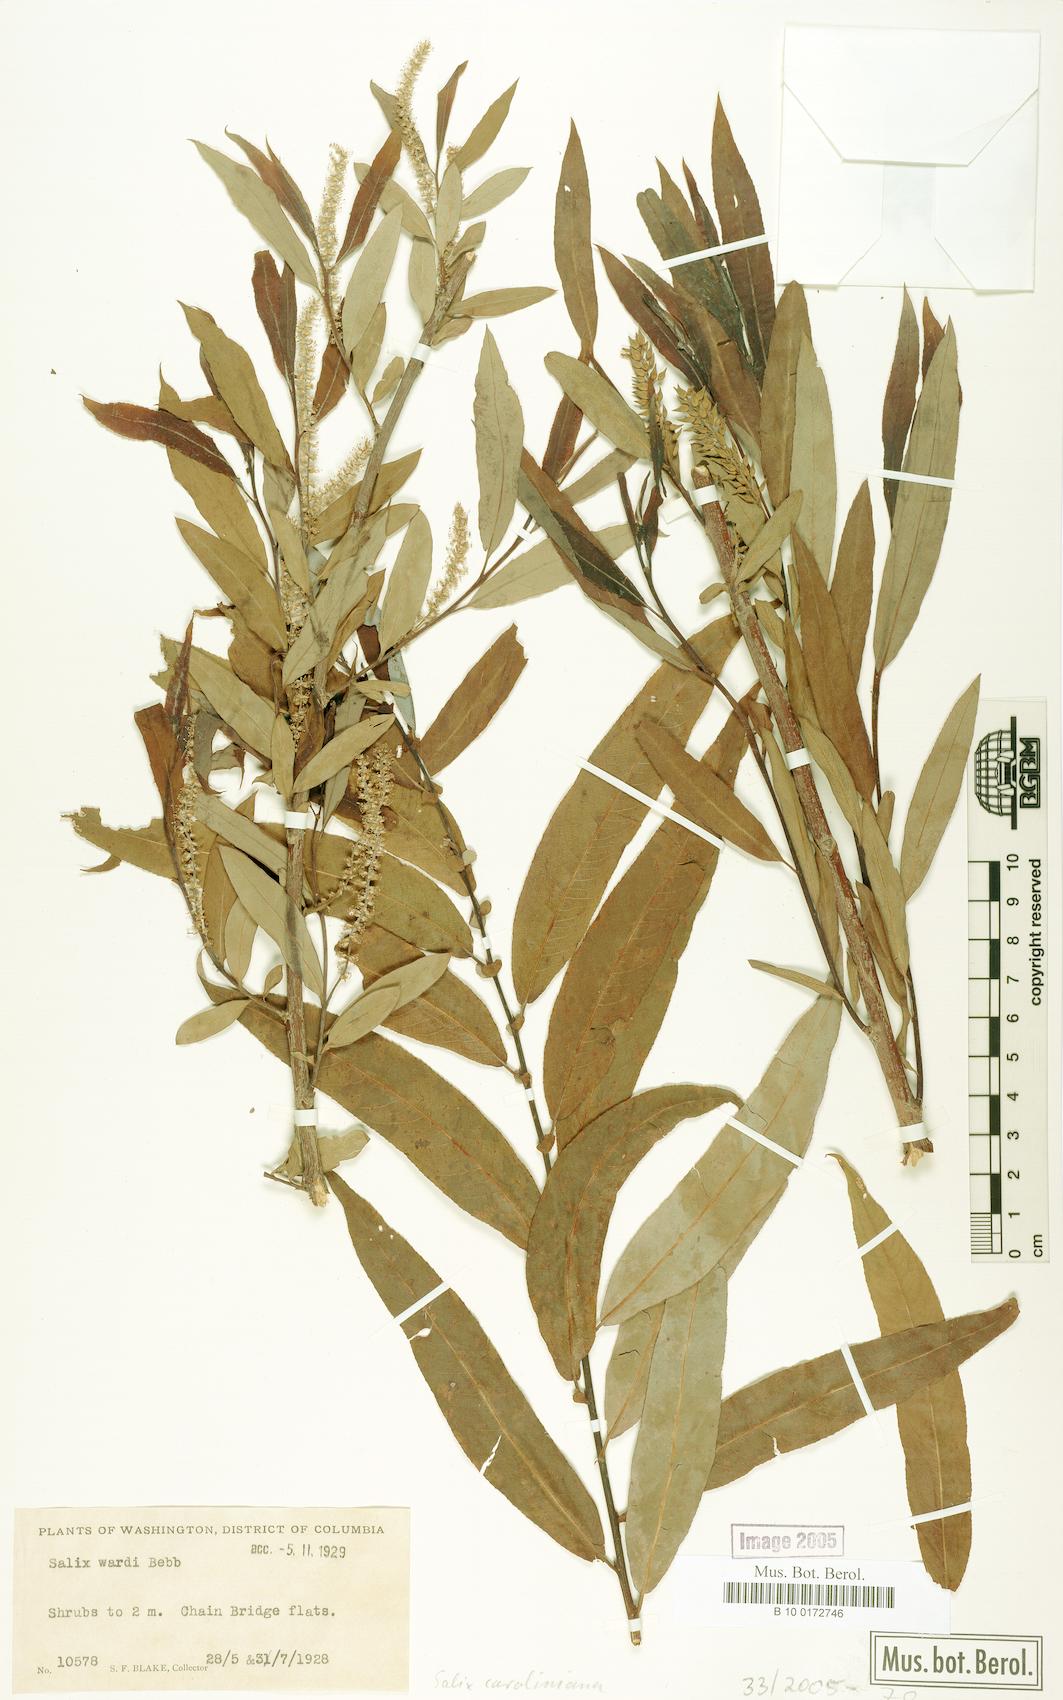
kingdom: Plantae
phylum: Tracheophyta
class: Magnoliopsida
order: Malpighiales
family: Salicaceae
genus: Salix
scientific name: Salix caroliniana
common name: Carolina willow
